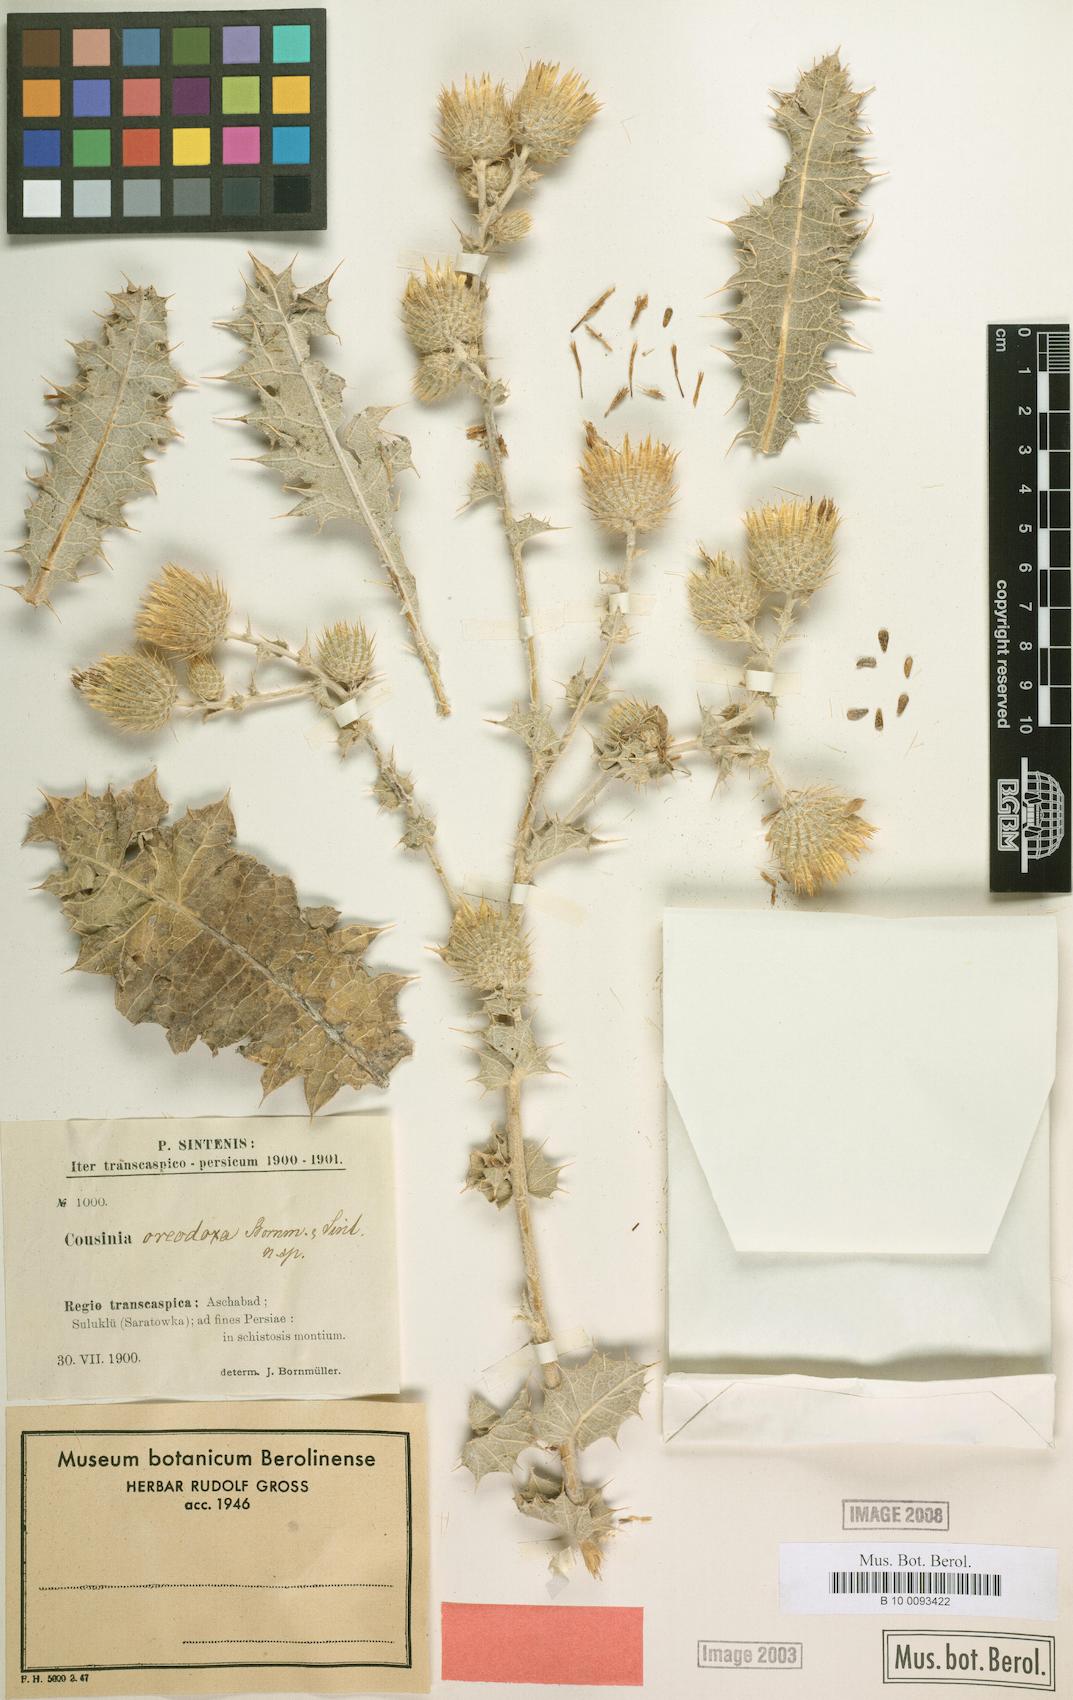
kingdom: Plantae
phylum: Tracheophyta
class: Magnoliopsida
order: Asterales
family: Asteraceae
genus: Cousinia
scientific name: Cousinia oreodoxa
